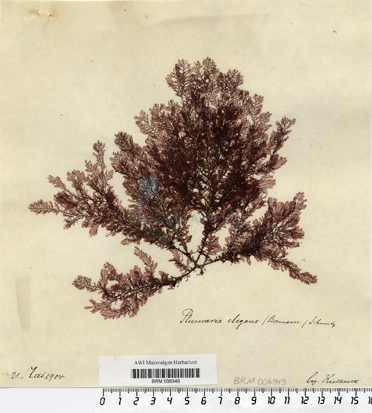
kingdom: Plantae
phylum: Rhodophyta
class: Florideophyceae
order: Ceramiales
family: Wrangeliaceae
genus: Plumaria
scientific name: Plumaria plumosa
